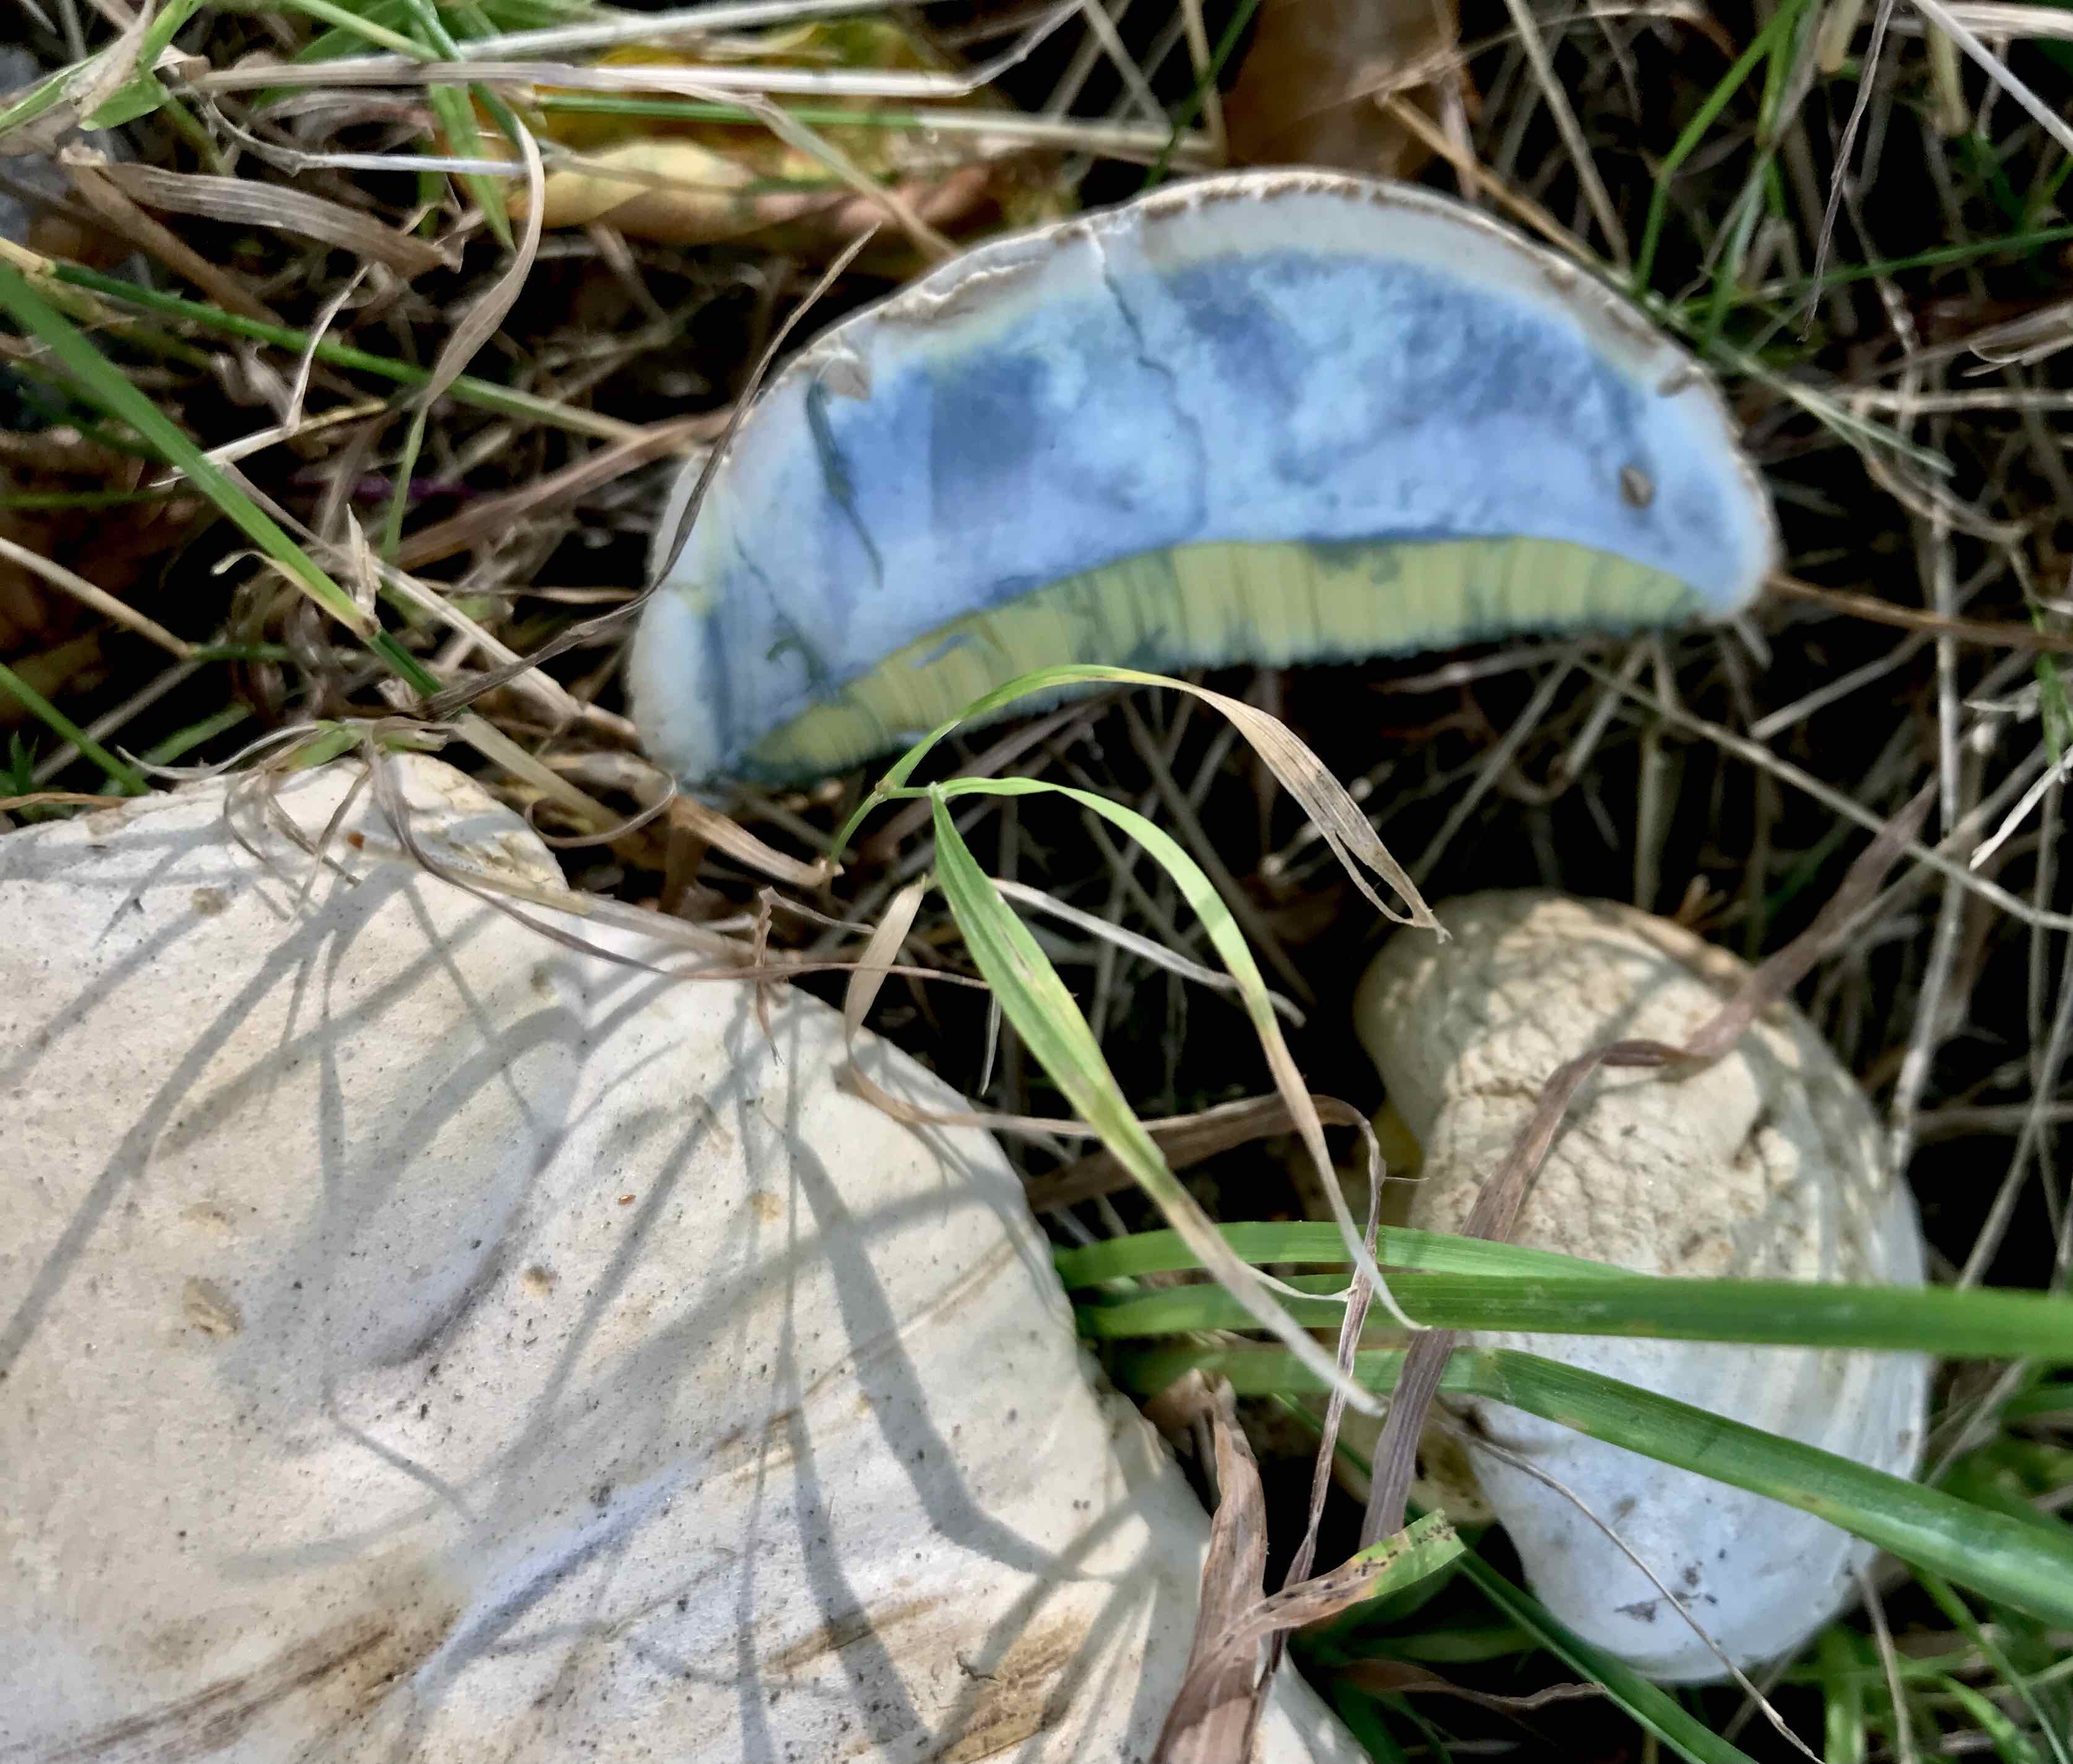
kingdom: Fungi
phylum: Basidiomycota
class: Agaricomycetes
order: Boletales
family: Boletaceae
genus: Caloboletus
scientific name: Caloboletus radicans
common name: rod-rørhat
